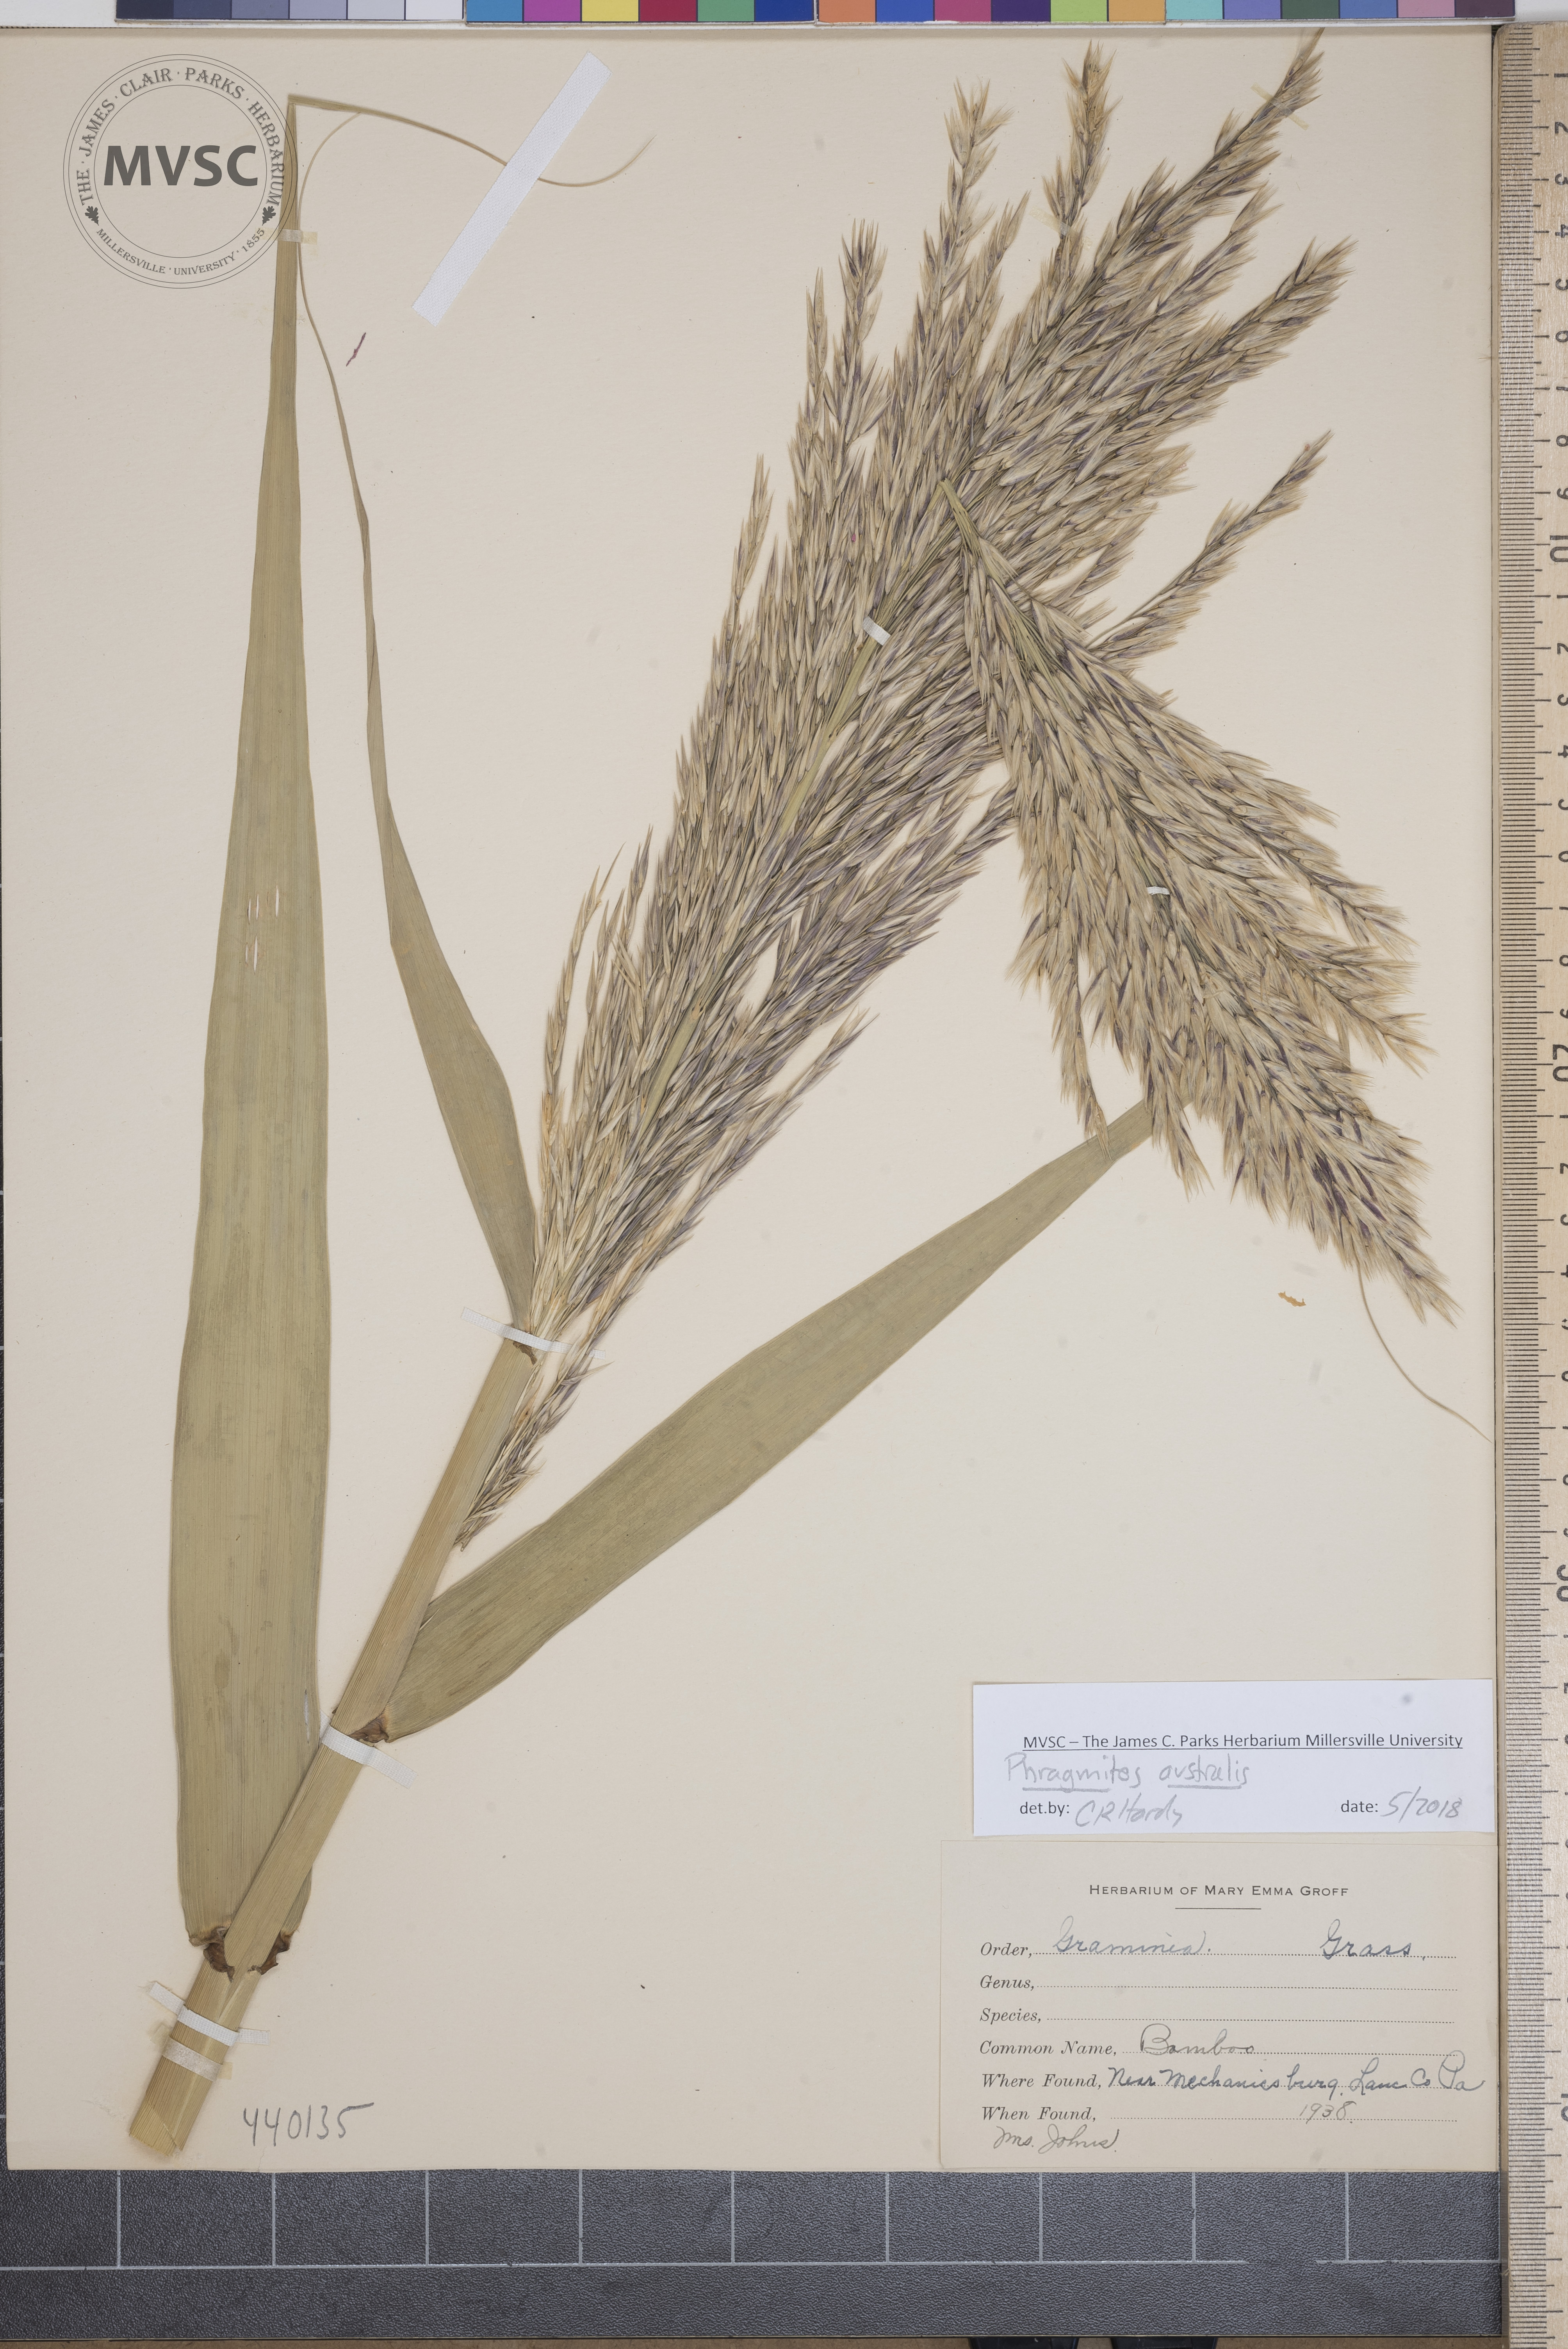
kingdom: Plantae
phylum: Tracheophyta
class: Liliopsida
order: Poales
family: Poaceae
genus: Phragmites
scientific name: Phragmites australis
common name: Common reed
